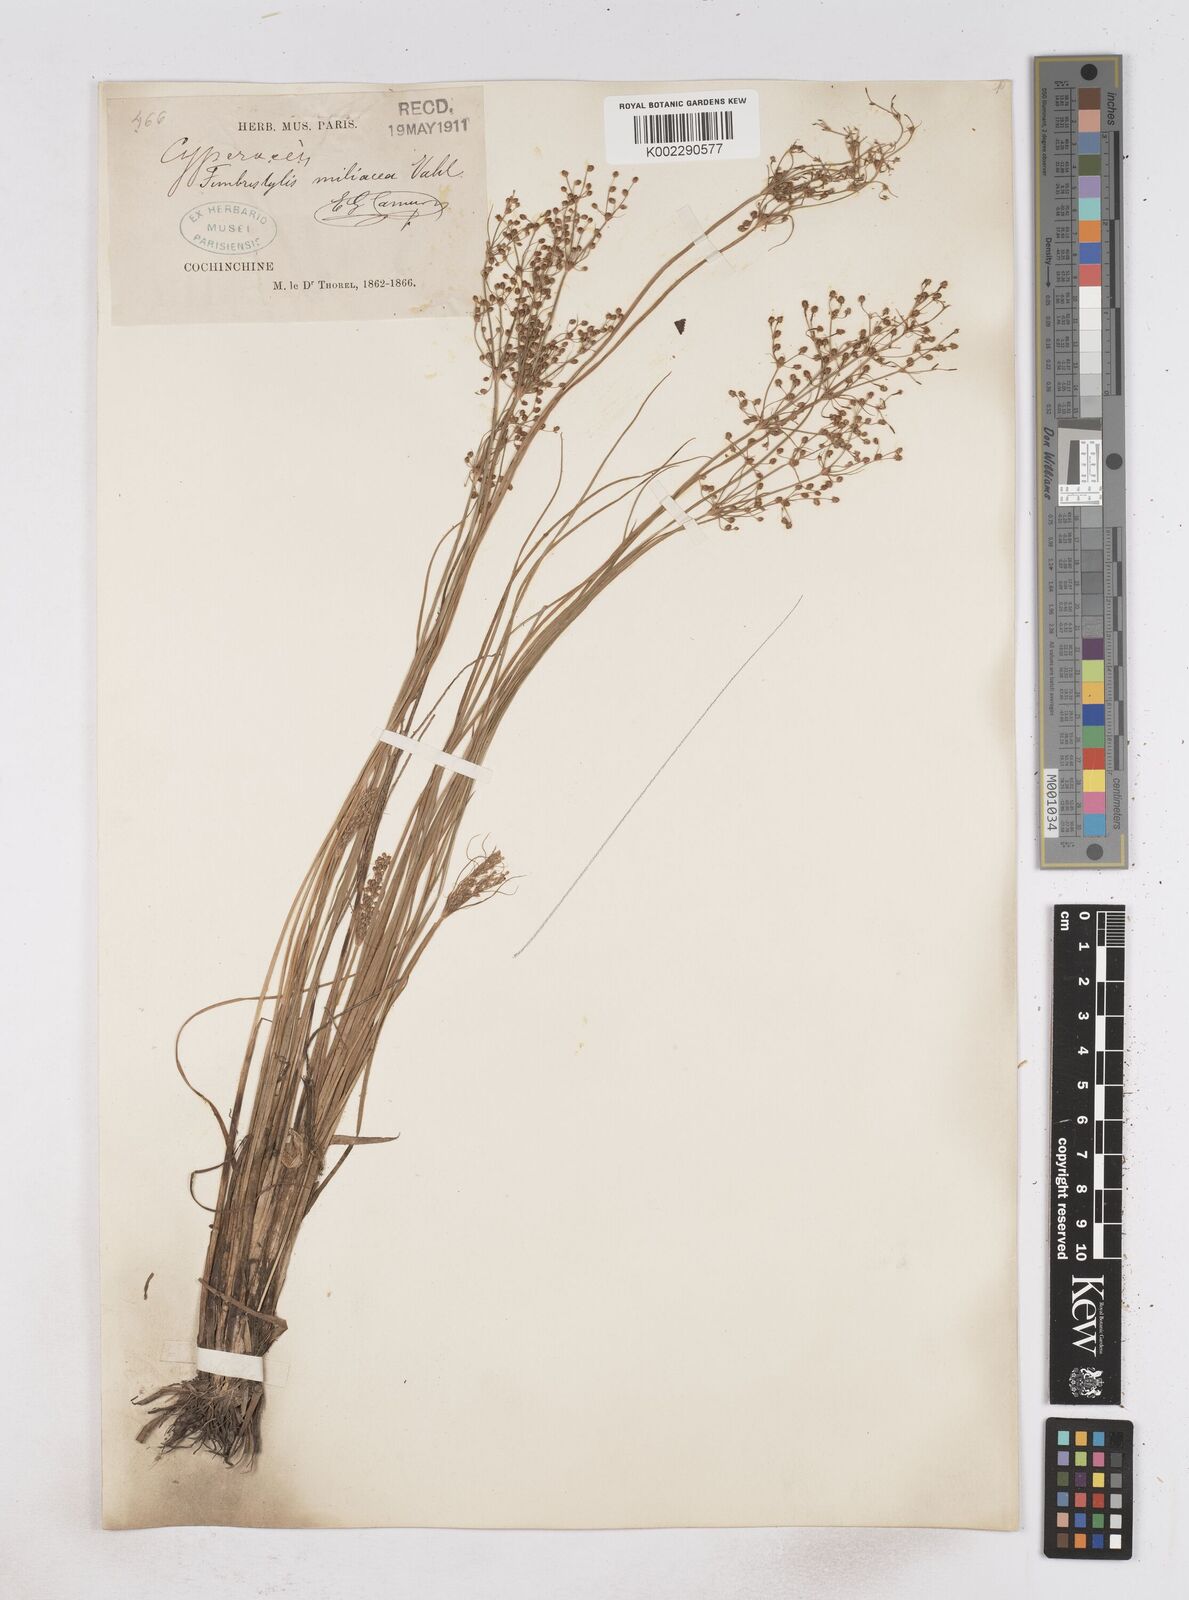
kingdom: Plantae
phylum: Tracheophyta
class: Liliopsida
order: Poales
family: Cyperaceae
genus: Fimbristylis
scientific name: Fimbristylis littoralis
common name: Fimbry
